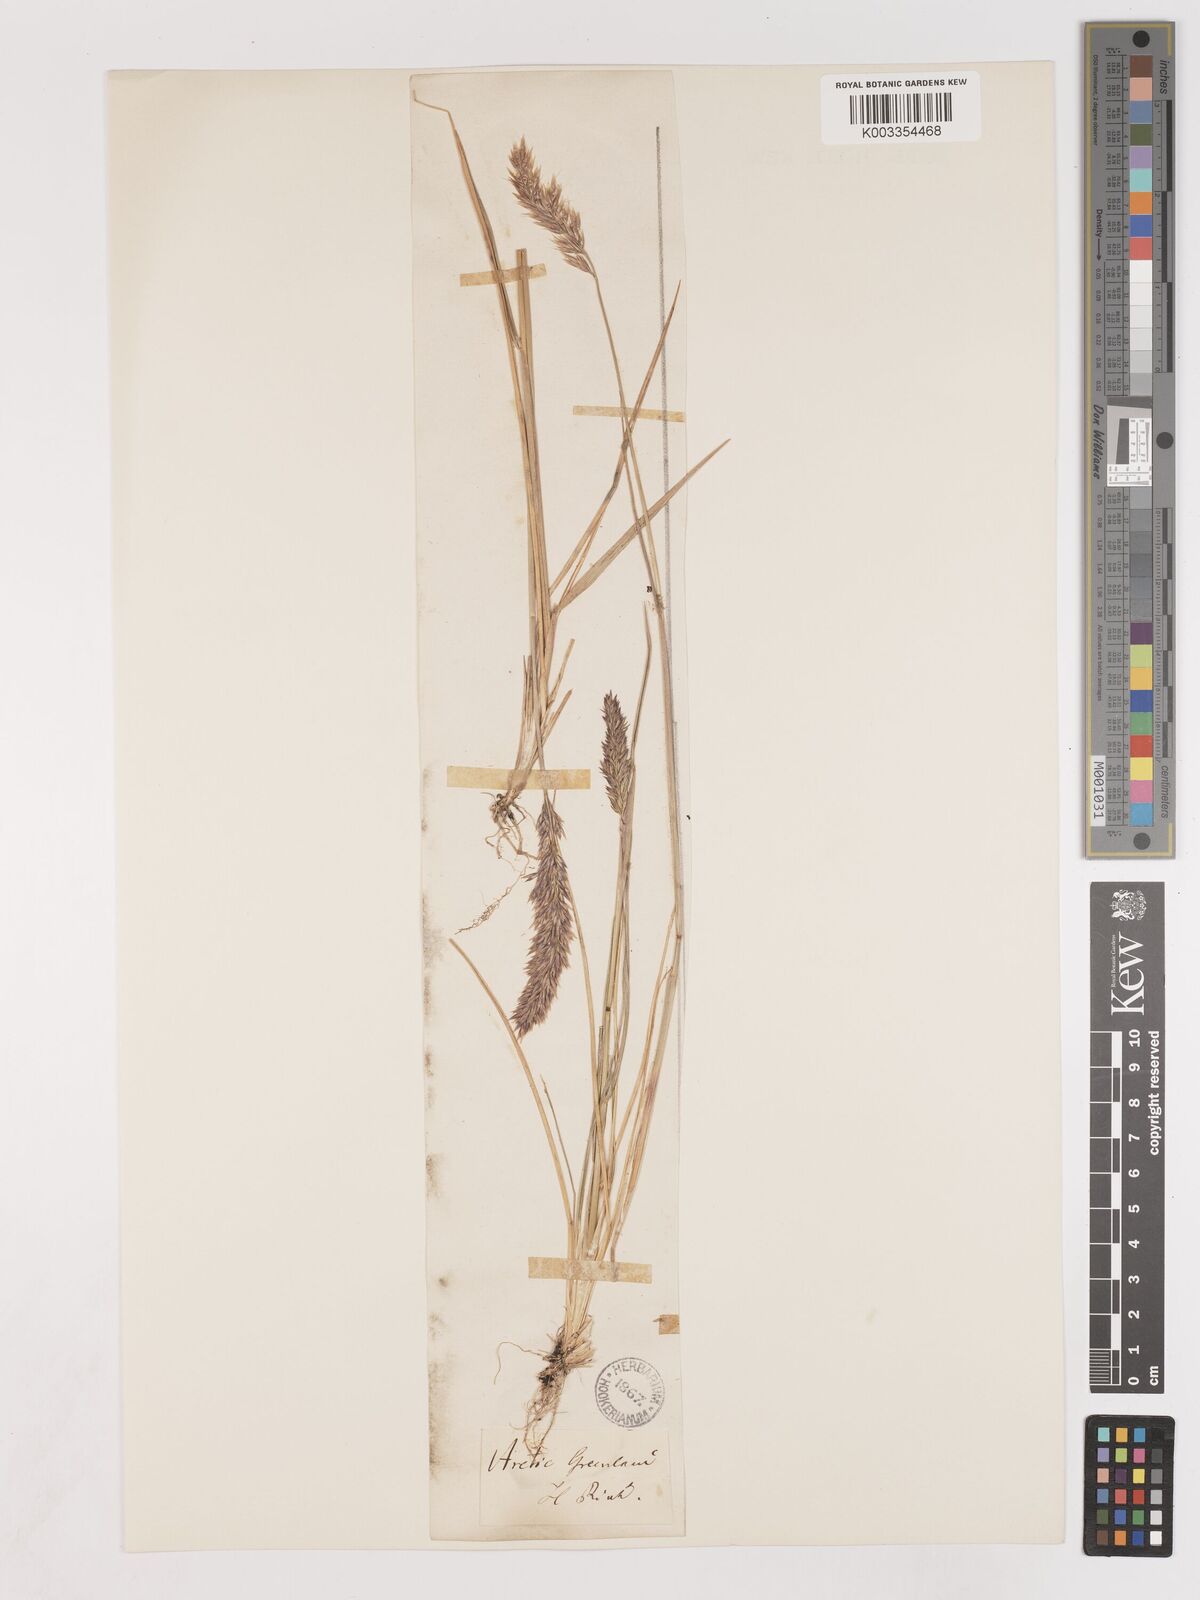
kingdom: Plantae
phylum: Tracheophyta
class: Liliopsida
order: Poales
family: Poaceae
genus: Calamagrostis
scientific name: Calamagrostis purpurascens
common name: Purple reedgrass
